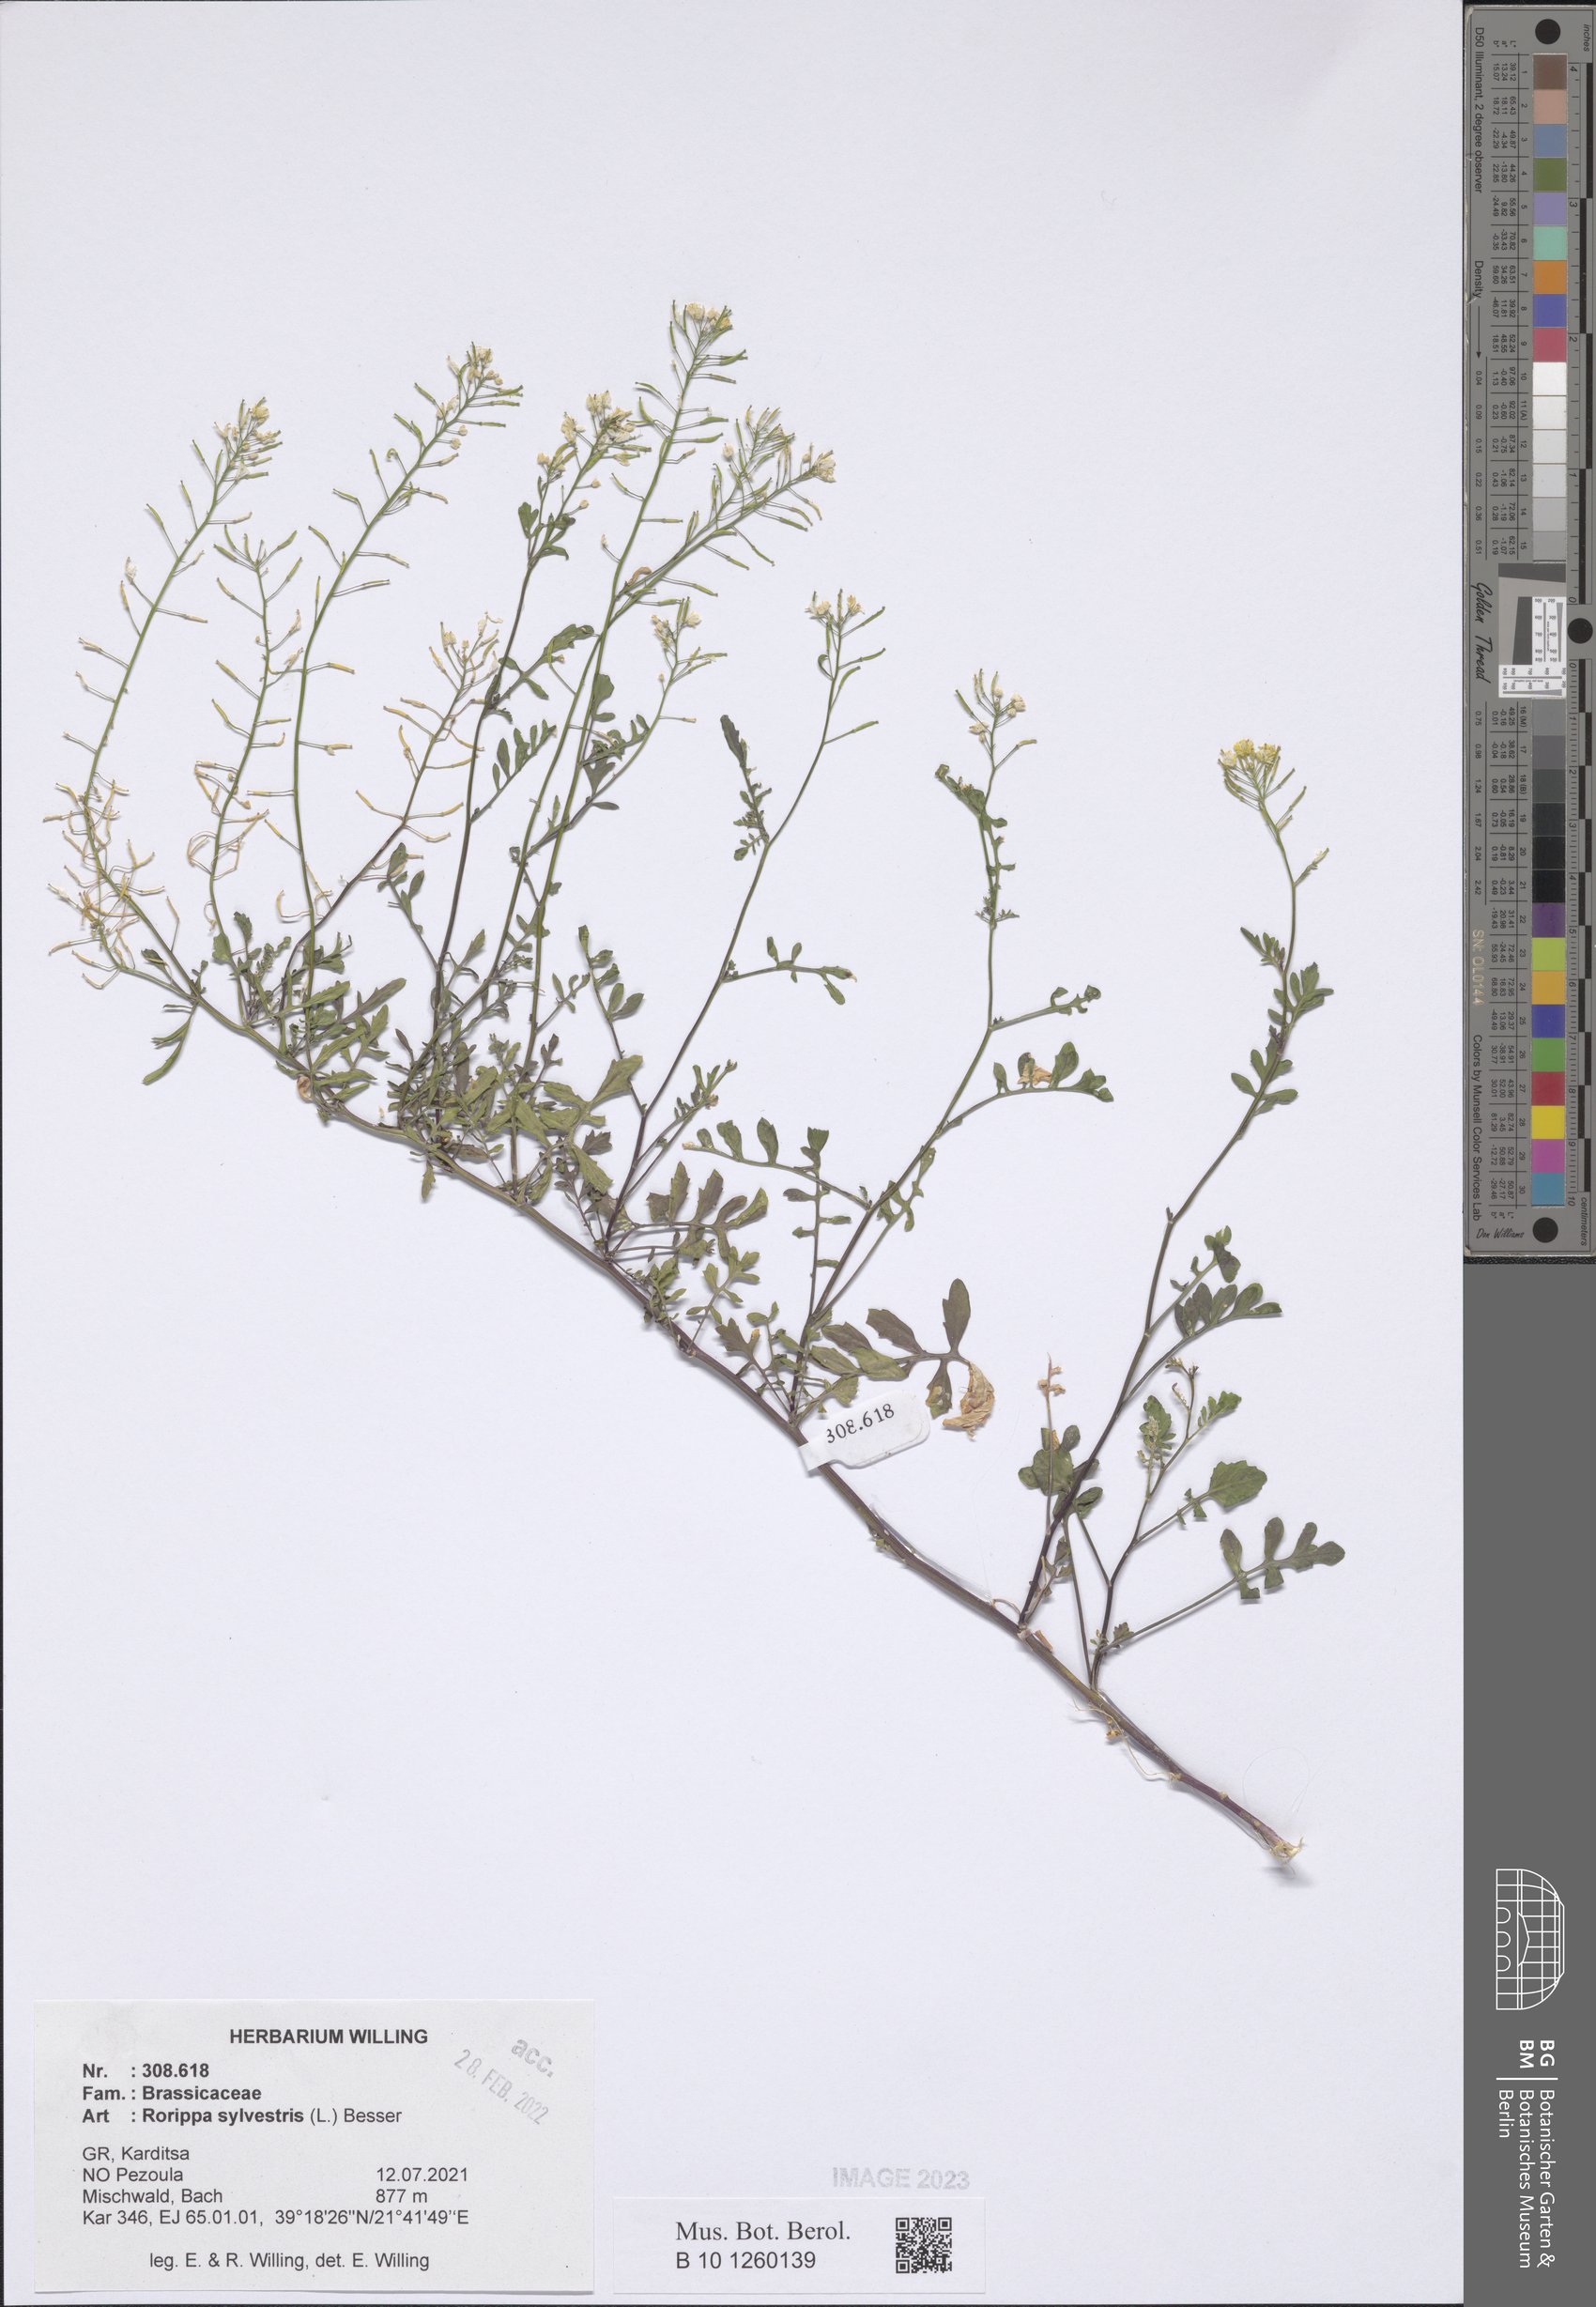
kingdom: Plantae
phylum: Tracheophyta
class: Magnoliopsida
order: Brassicales
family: Brassicaceae
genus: Rorippa
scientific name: Rorippa sylvestris
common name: Creeping yellowcress
